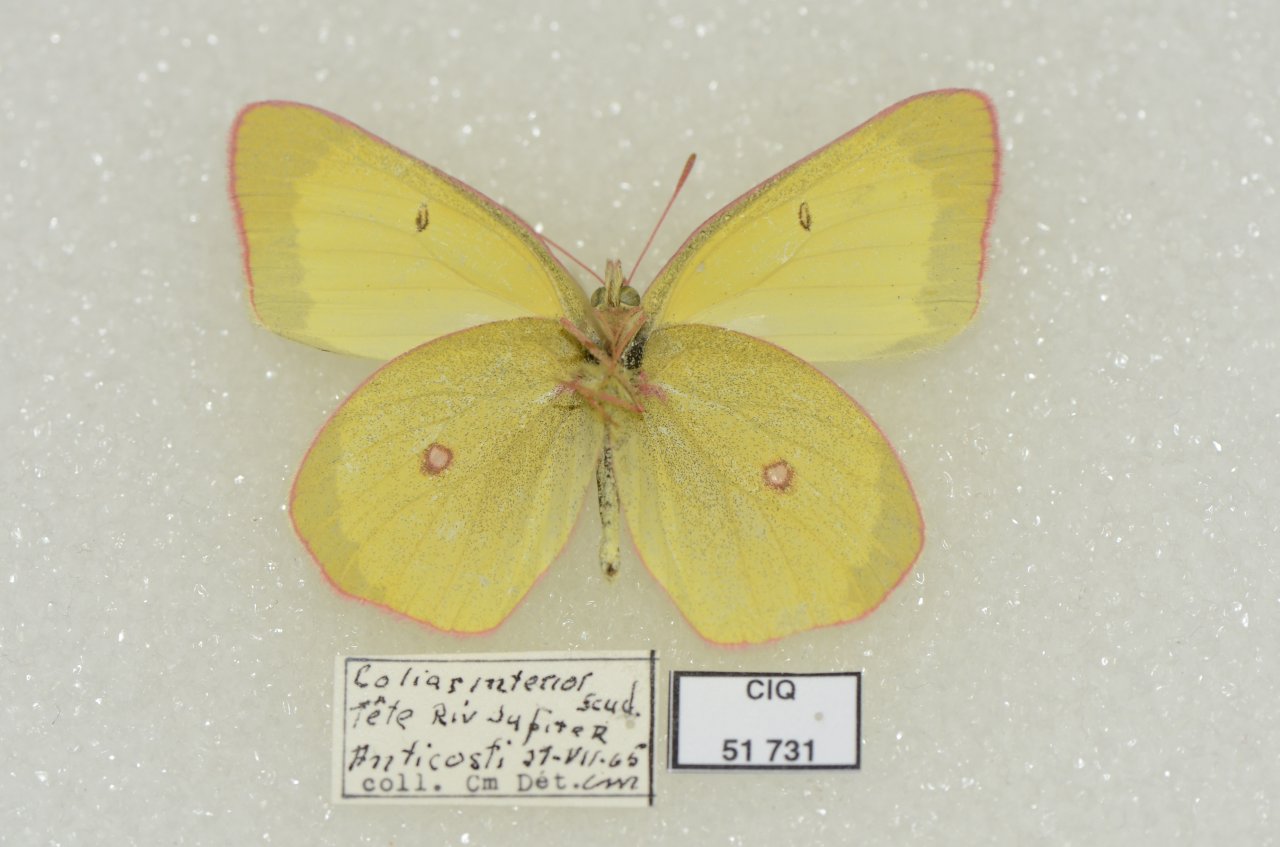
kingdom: Animalia
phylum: Arthropoda
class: Insecta
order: Lepidoptera
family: Pieridae
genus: Colias
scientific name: Colias interior
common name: Pink-edged Sulphur
